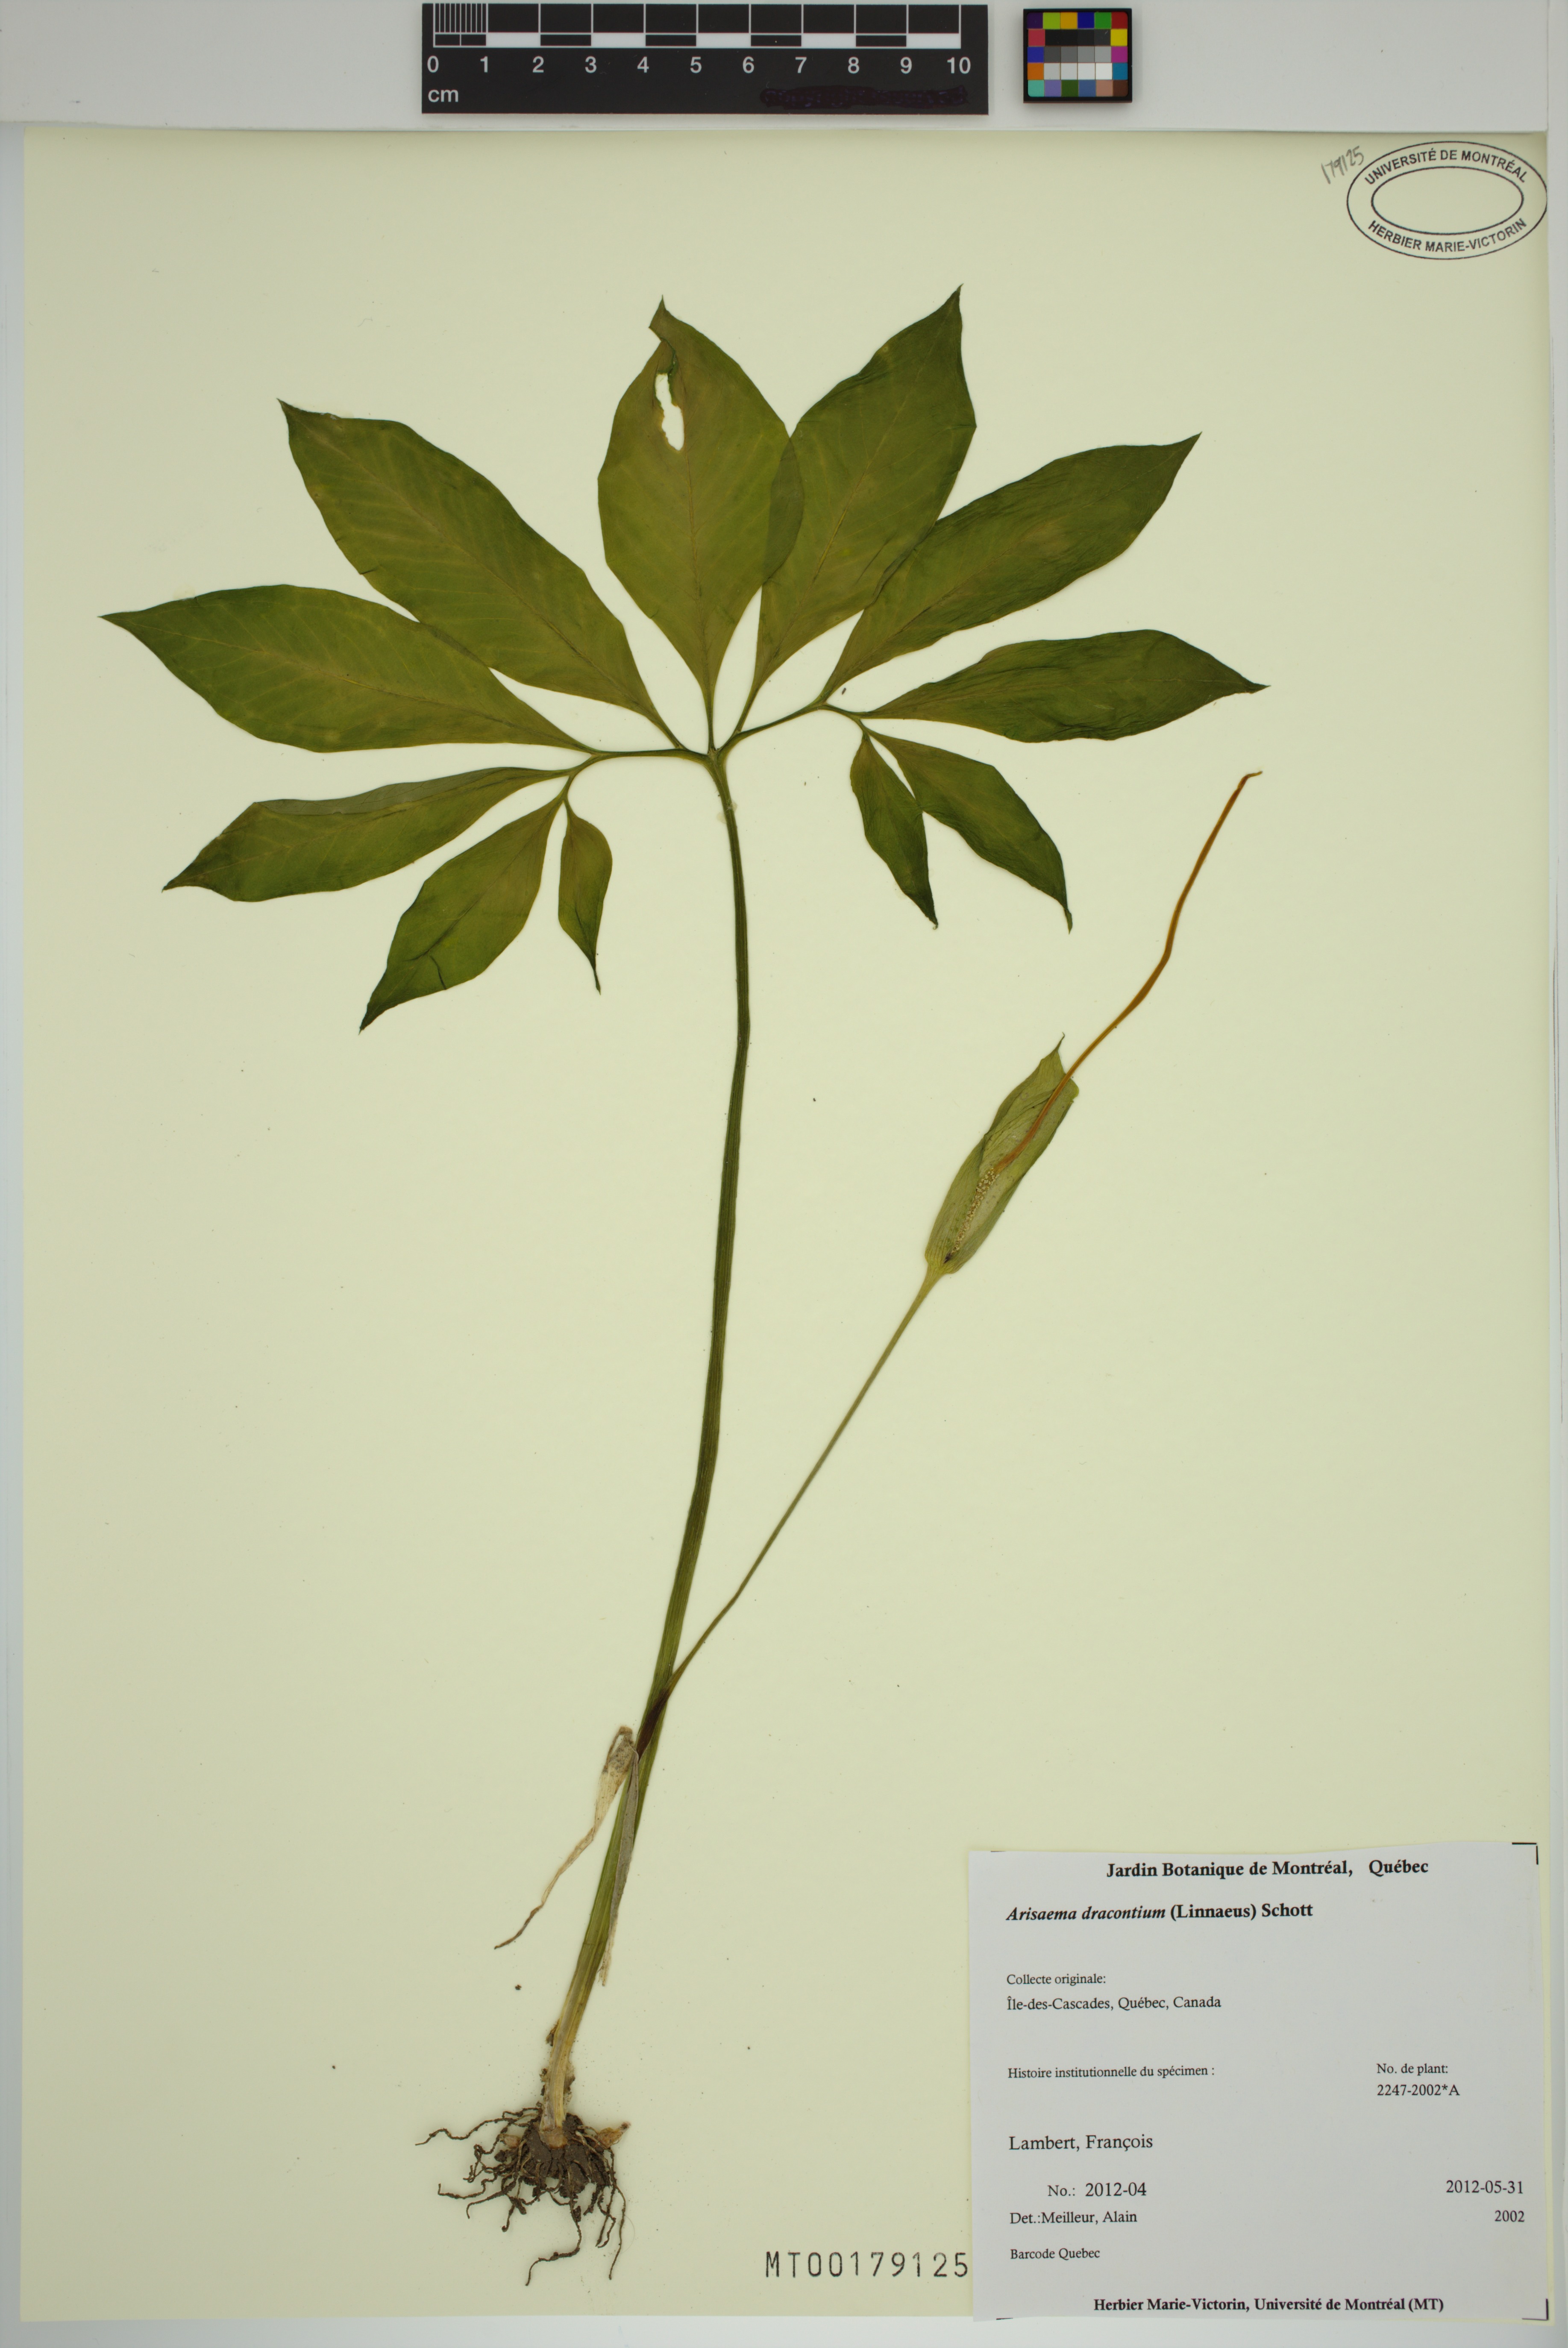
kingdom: Plantae
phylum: Tracheophyta
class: Liliopsida
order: Alismatales
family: Araceae
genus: Arisaema
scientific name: Arisaema dracontium
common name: Dragon-arum
